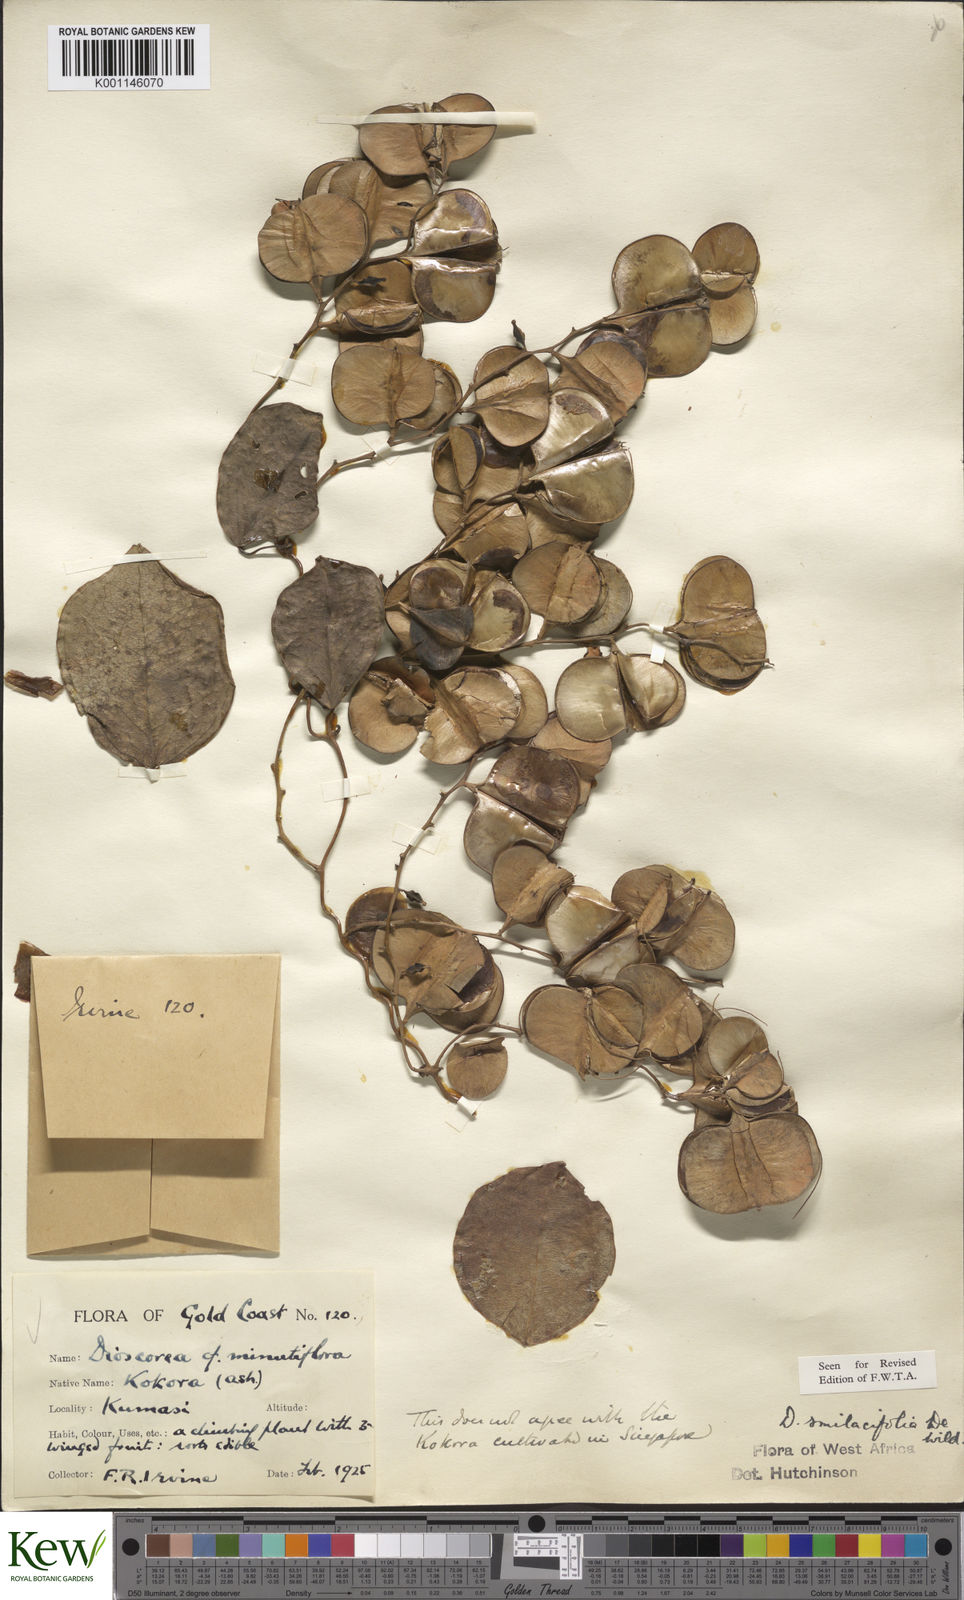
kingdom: Plantae
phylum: Tracheophyta
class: Liliopsida
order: Dioscoreales
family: Dioscoreaceae
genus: Dioscorea
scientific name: Dioscorea smilacifolia
